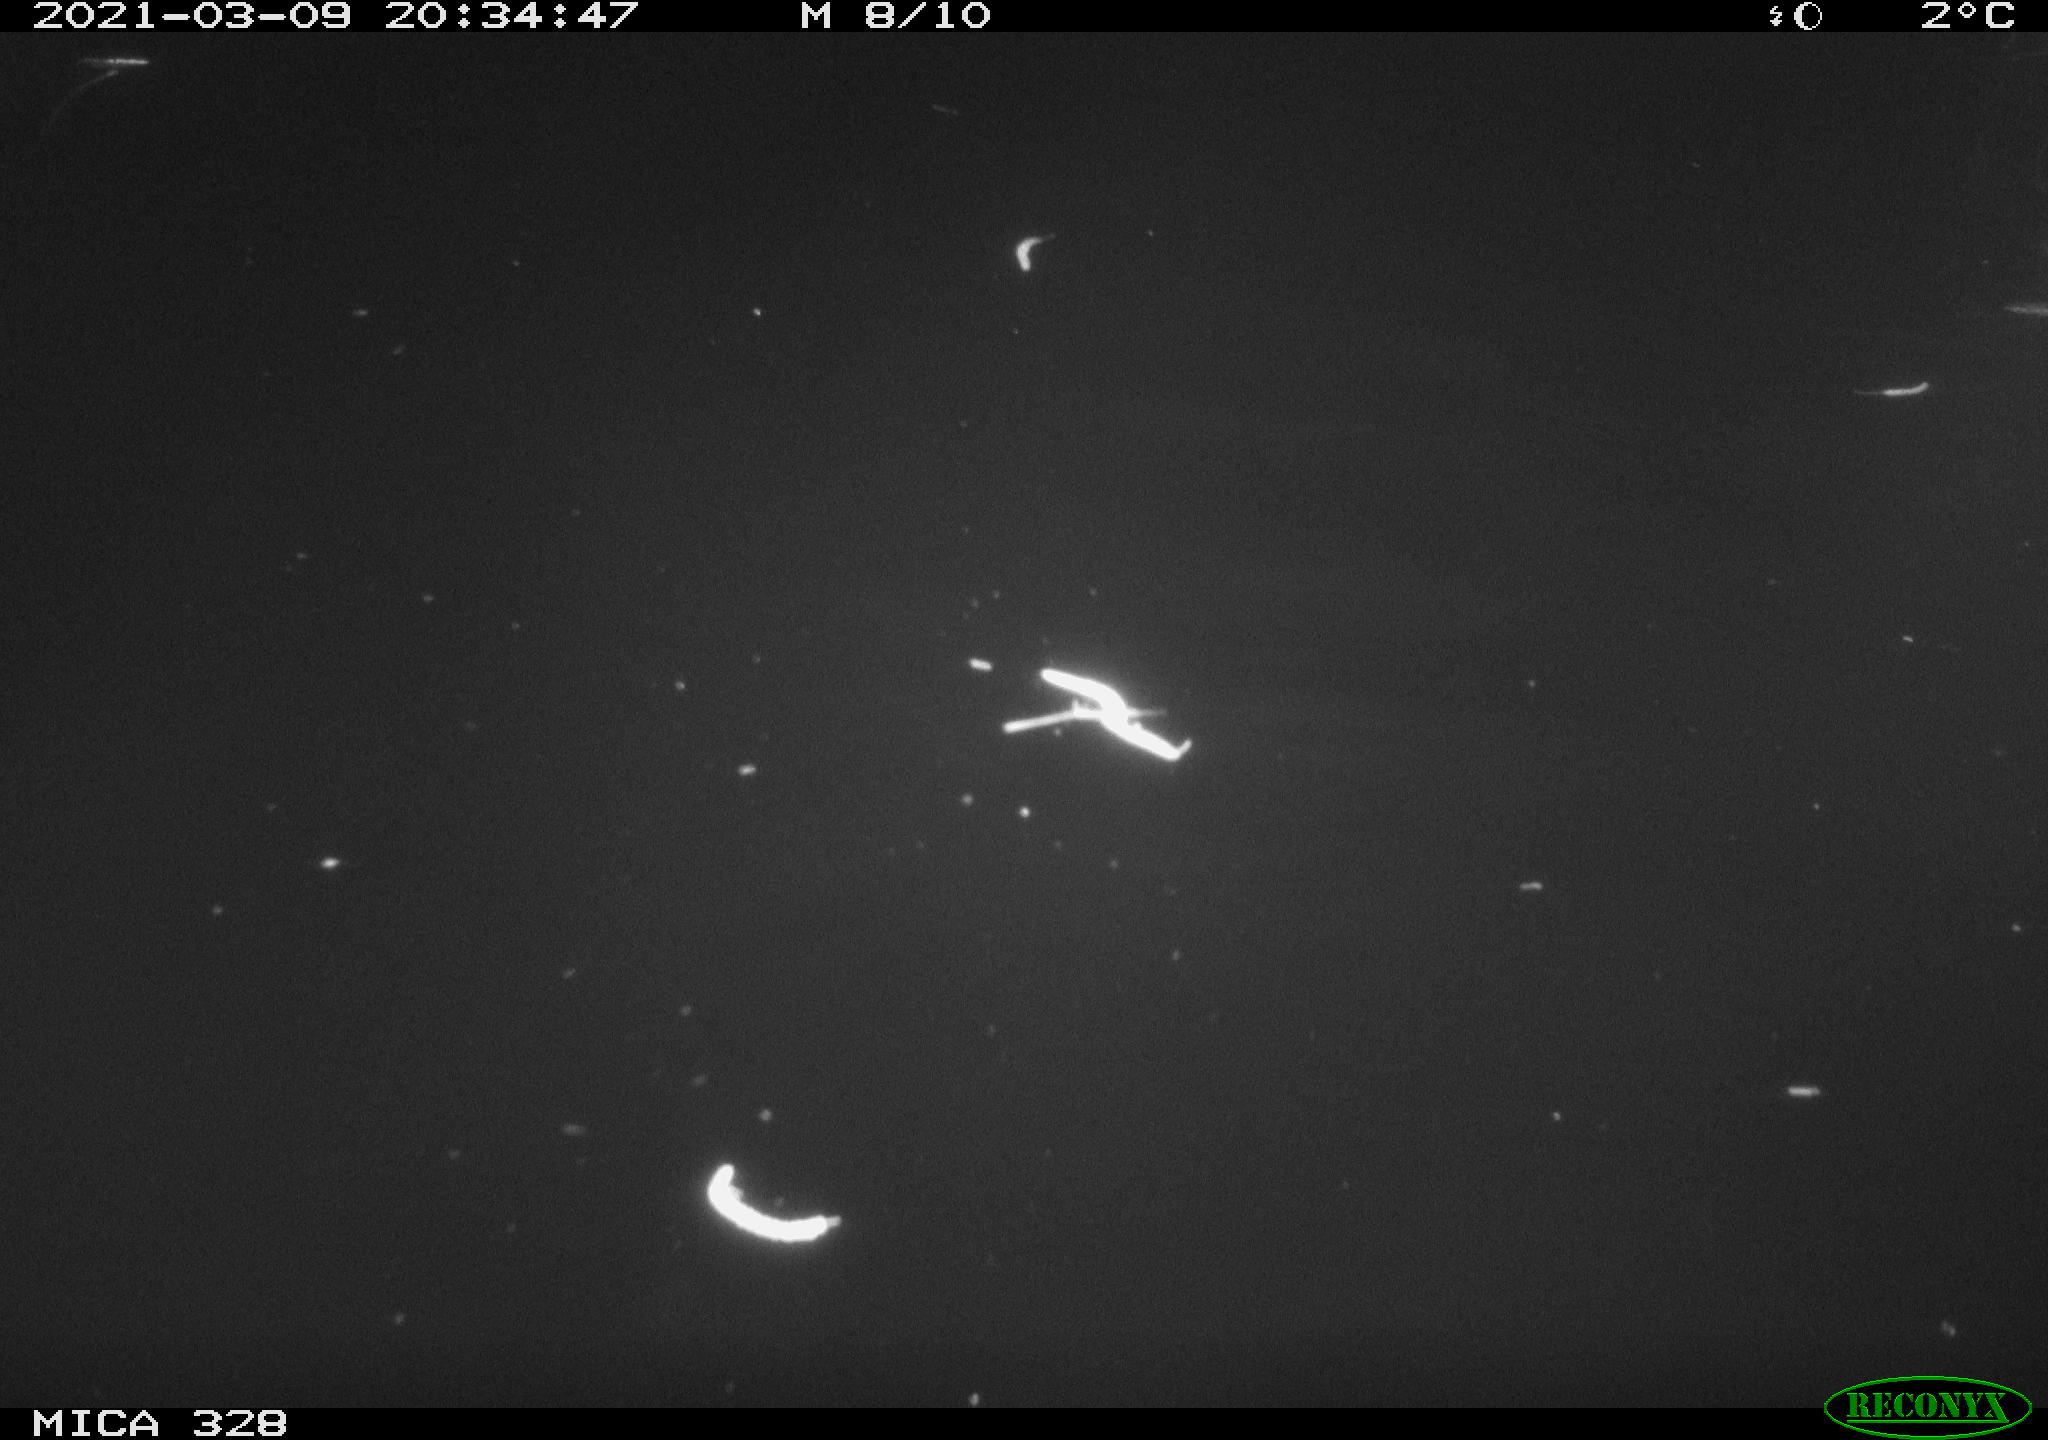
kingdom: Animalia
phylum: Chordata
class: Mammalia
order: Rodentia
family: Cricetidae
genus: Ondatra
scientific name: Ondatra zibethicus
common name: Muskrat
